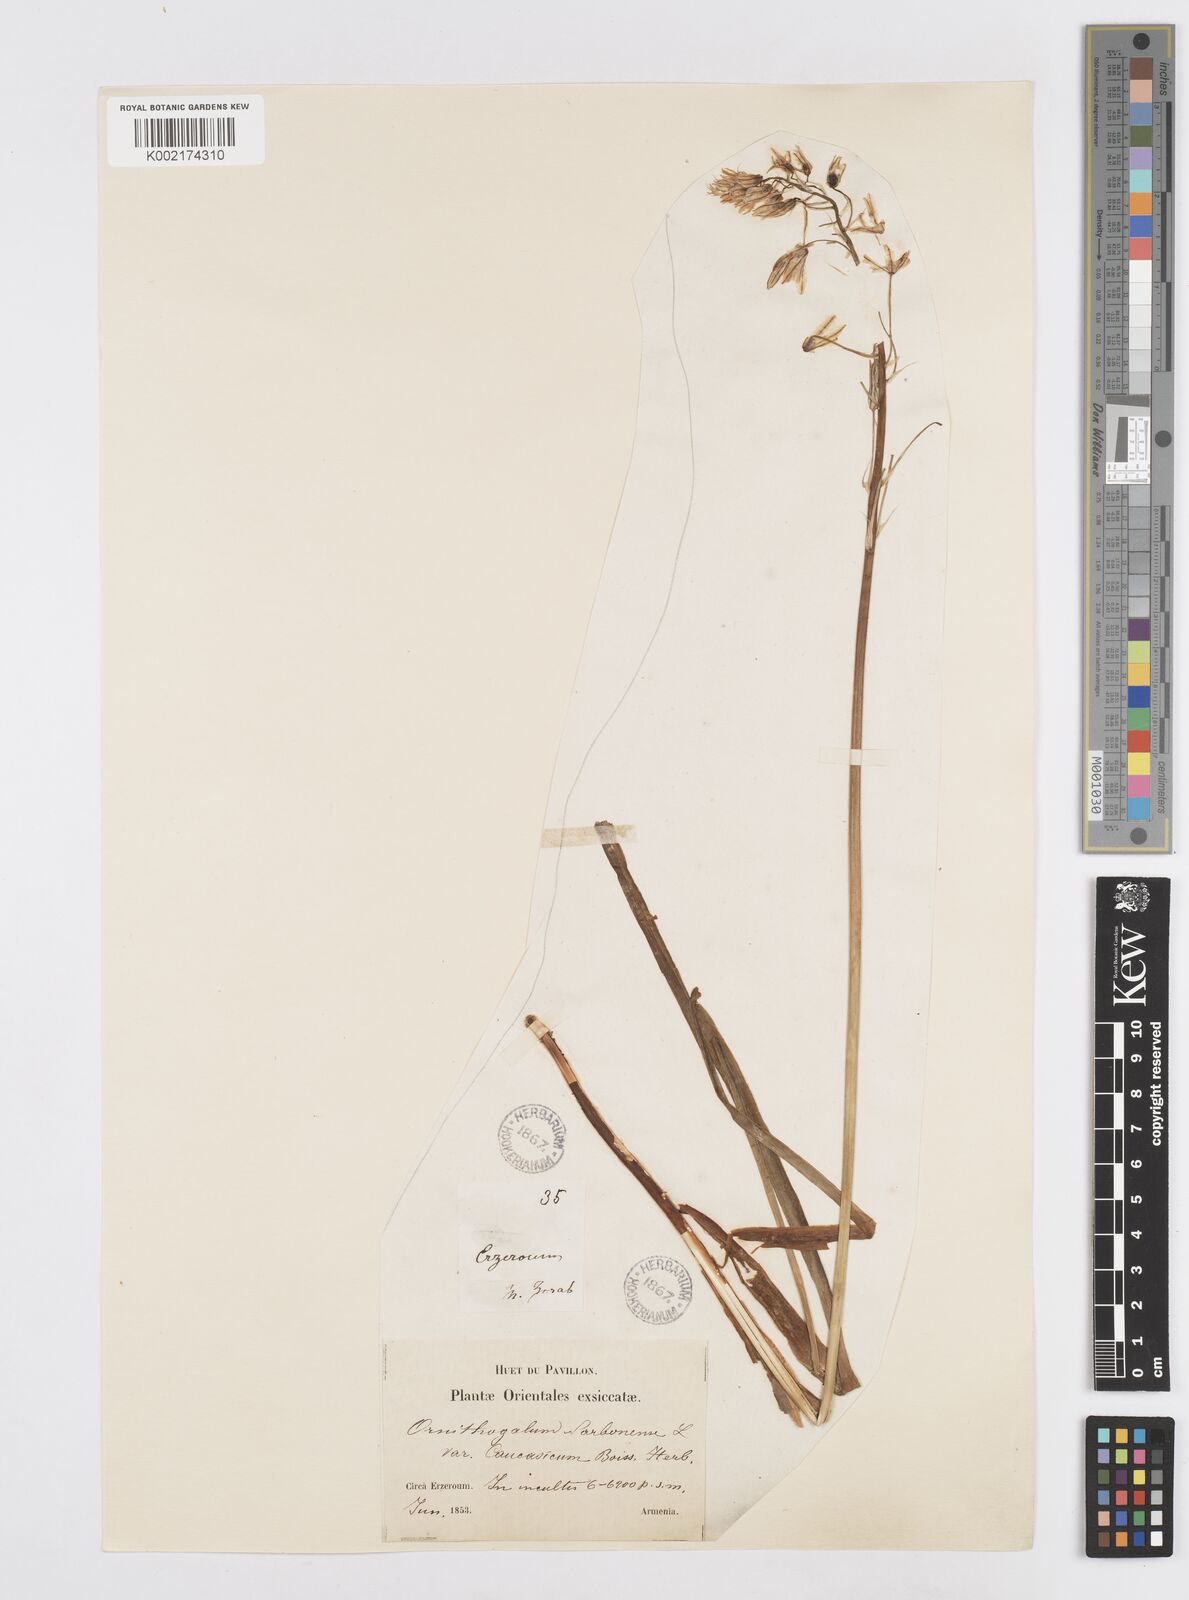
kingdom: Plantae
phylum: Tracheophyta
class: Liliopsida
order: Asparagales
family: Asparagaceae
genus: Ornithogalum
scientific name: Ornithogalum narbonense
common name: Bath-asparagus
